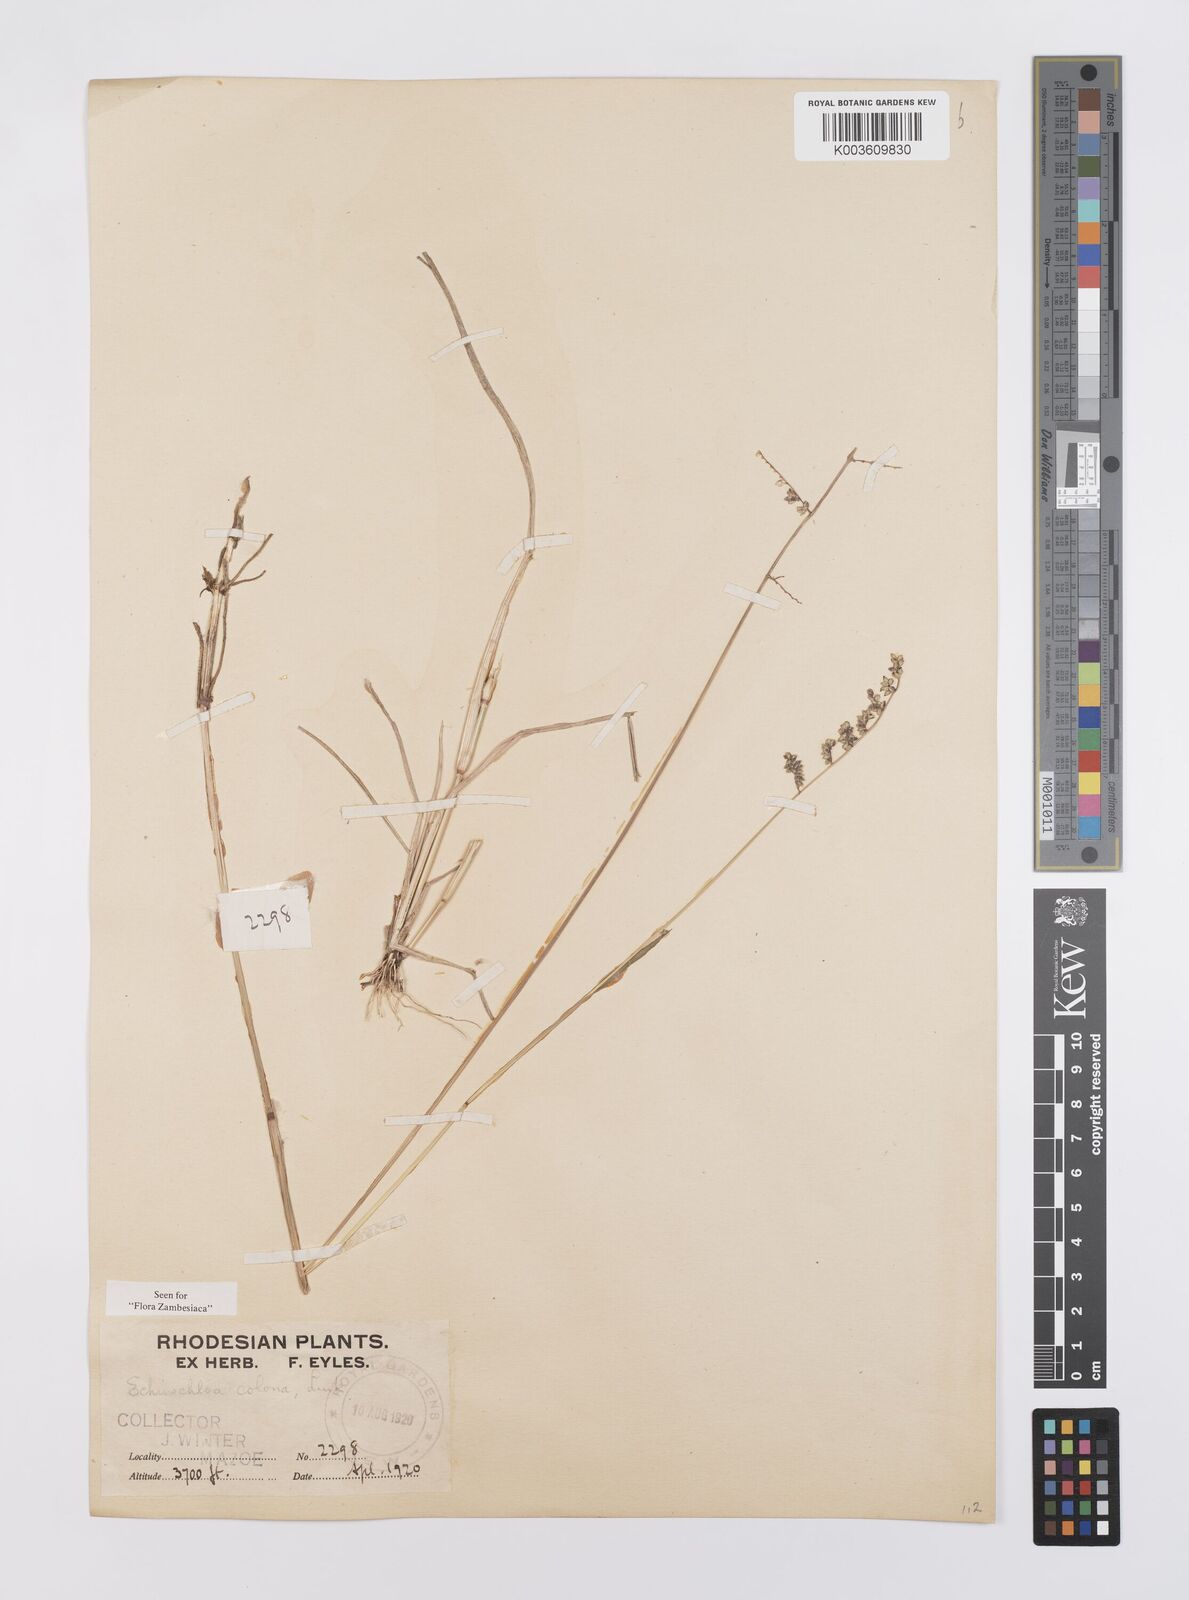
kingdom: Plantae
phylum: Tracheophyta
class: Liliopsida
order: Poales
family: Poaceae
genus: Echinochloa
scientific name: Echinochloa colonum
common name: Jungle rice
